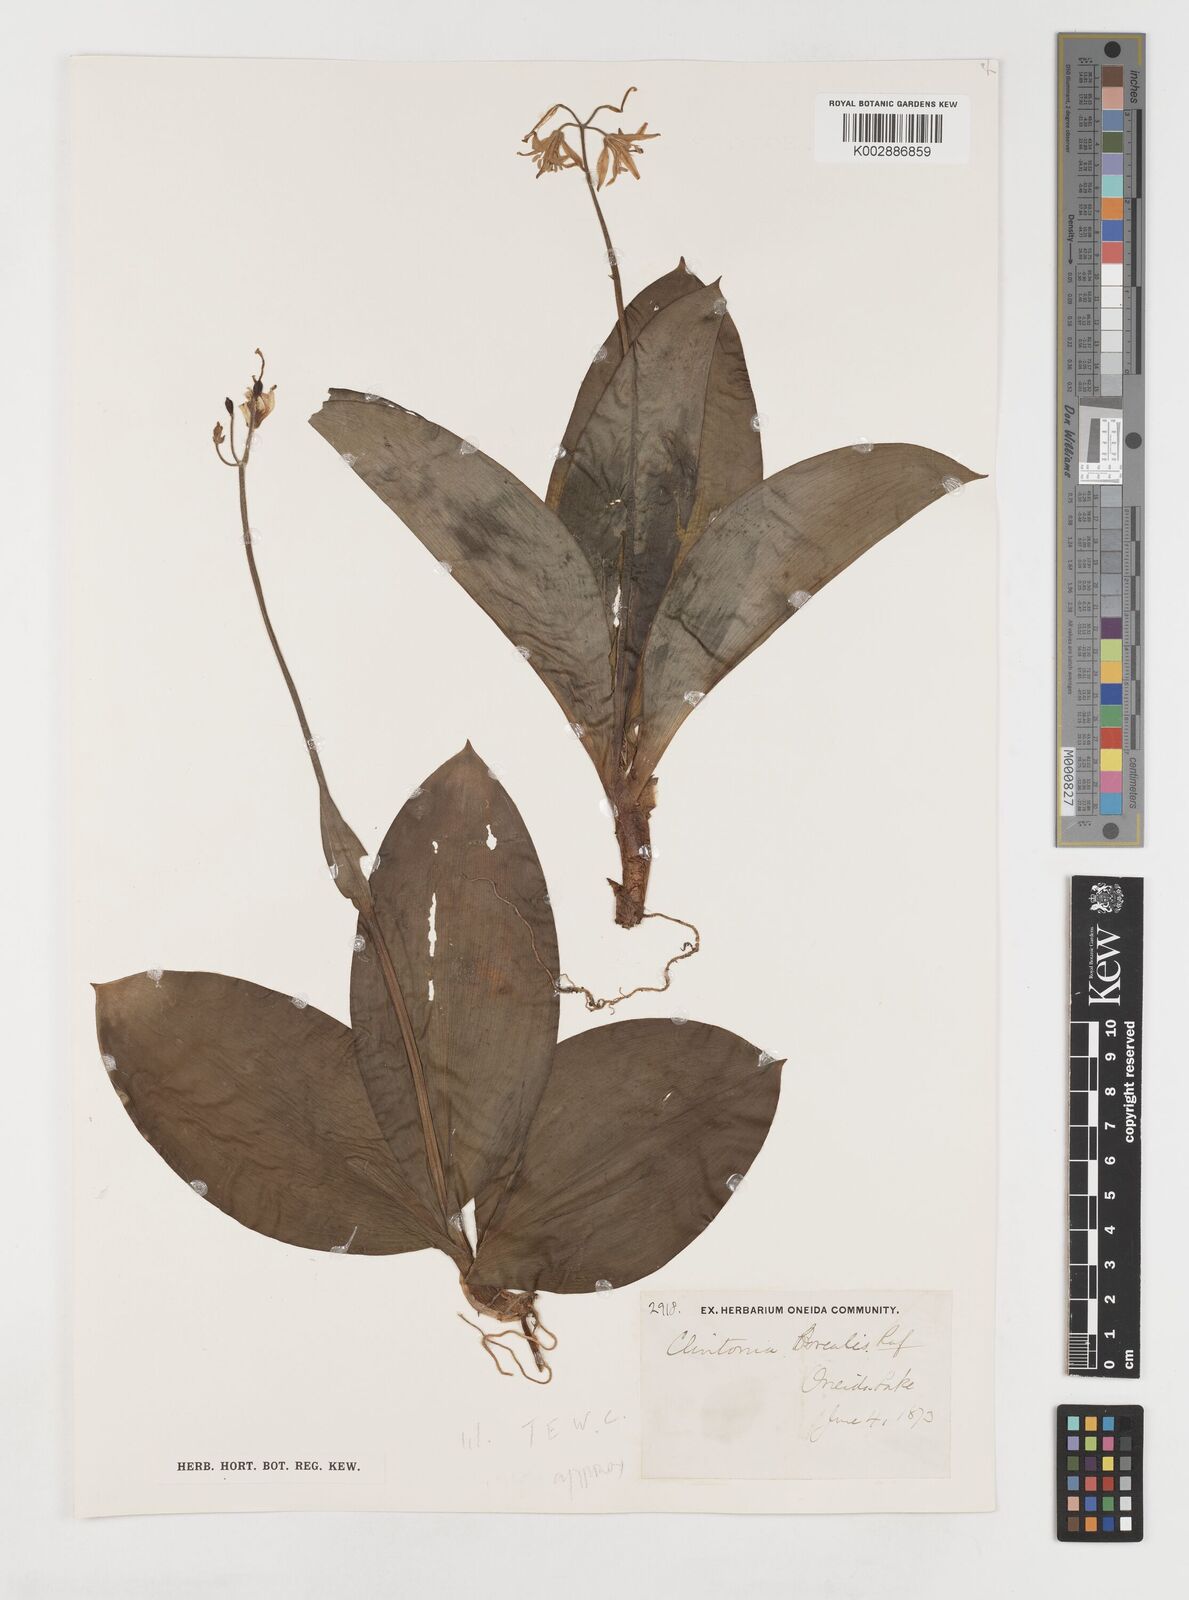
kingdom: Plantae
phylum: Tracheophyta
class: Liliopsida
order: Liliales
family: Liliaceae
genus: Clintonia
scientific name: Clintonia borealis
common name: Yellow clintonia
